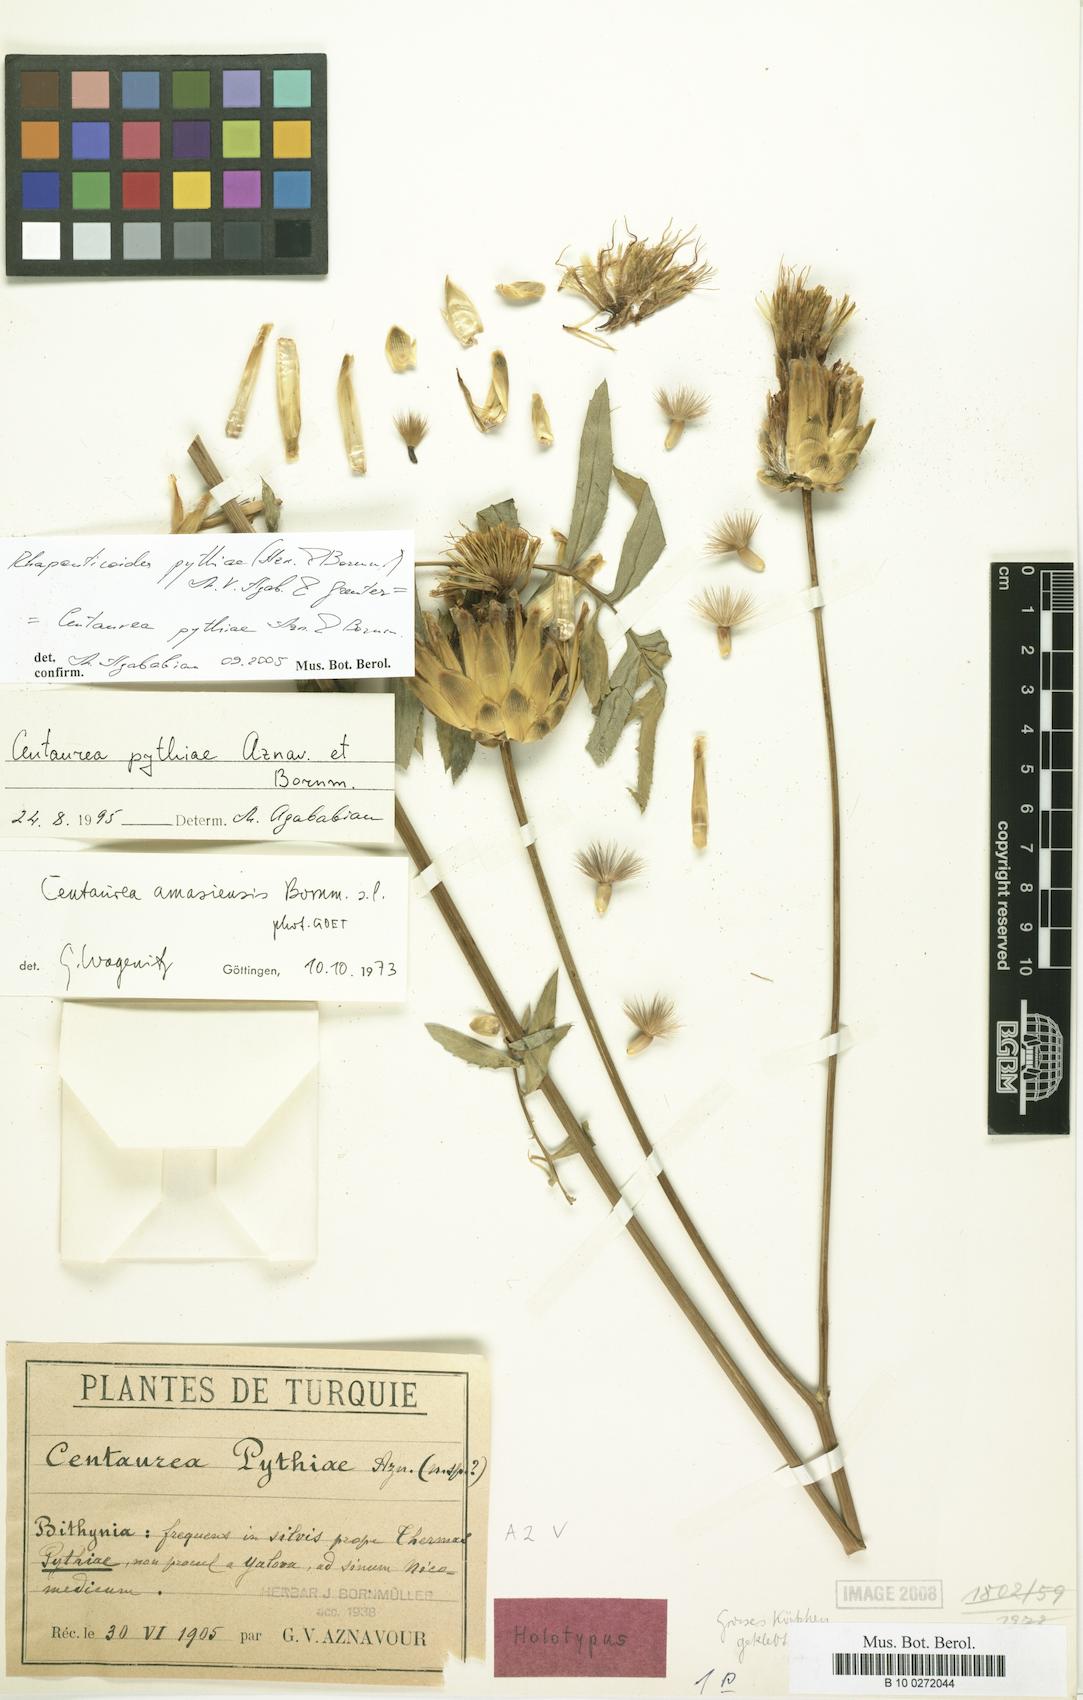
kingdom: Plantae
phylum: Tracheophyta
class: Magnoliopsida
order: Asterales
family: Asteraceae
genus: Rhaponticoides
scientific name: Rhaponticoides pythiae
